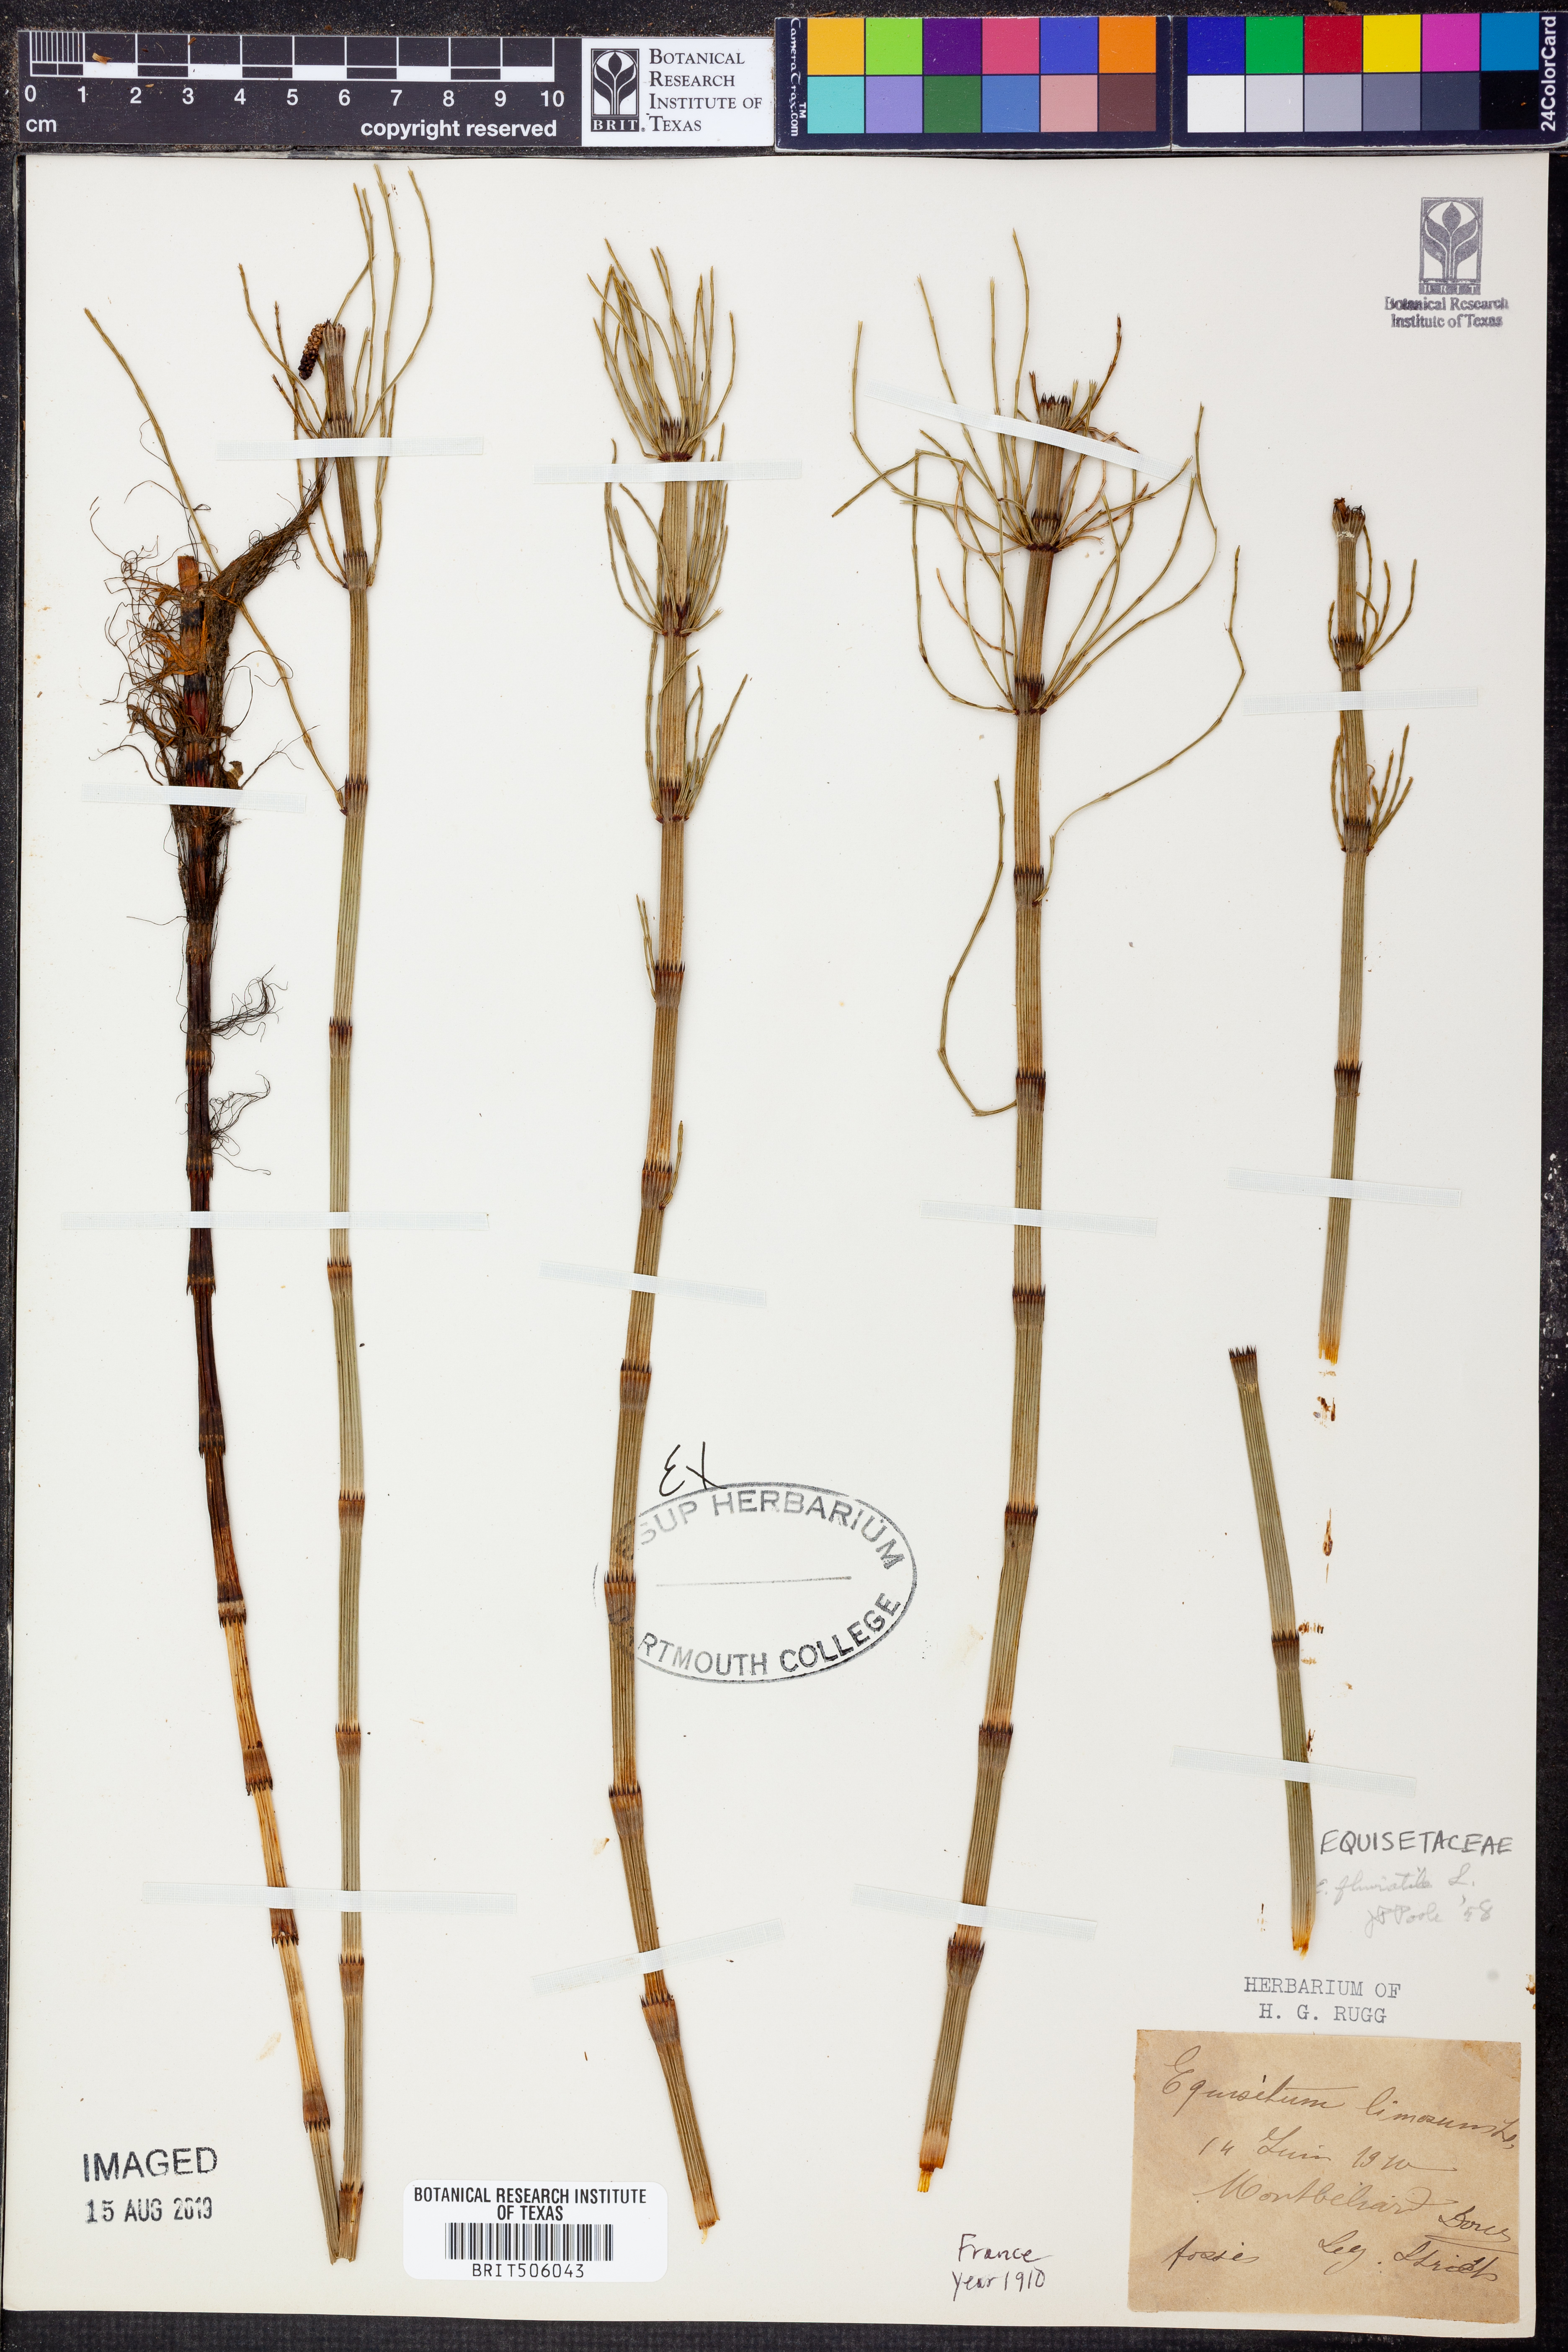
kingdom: Plantae
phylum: Tracheophyta
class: Polypodiopsida
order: Equisetales
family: Equisetaceae
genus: Equisetum
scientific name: Equisetum fluviatile
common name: Water horsetail
